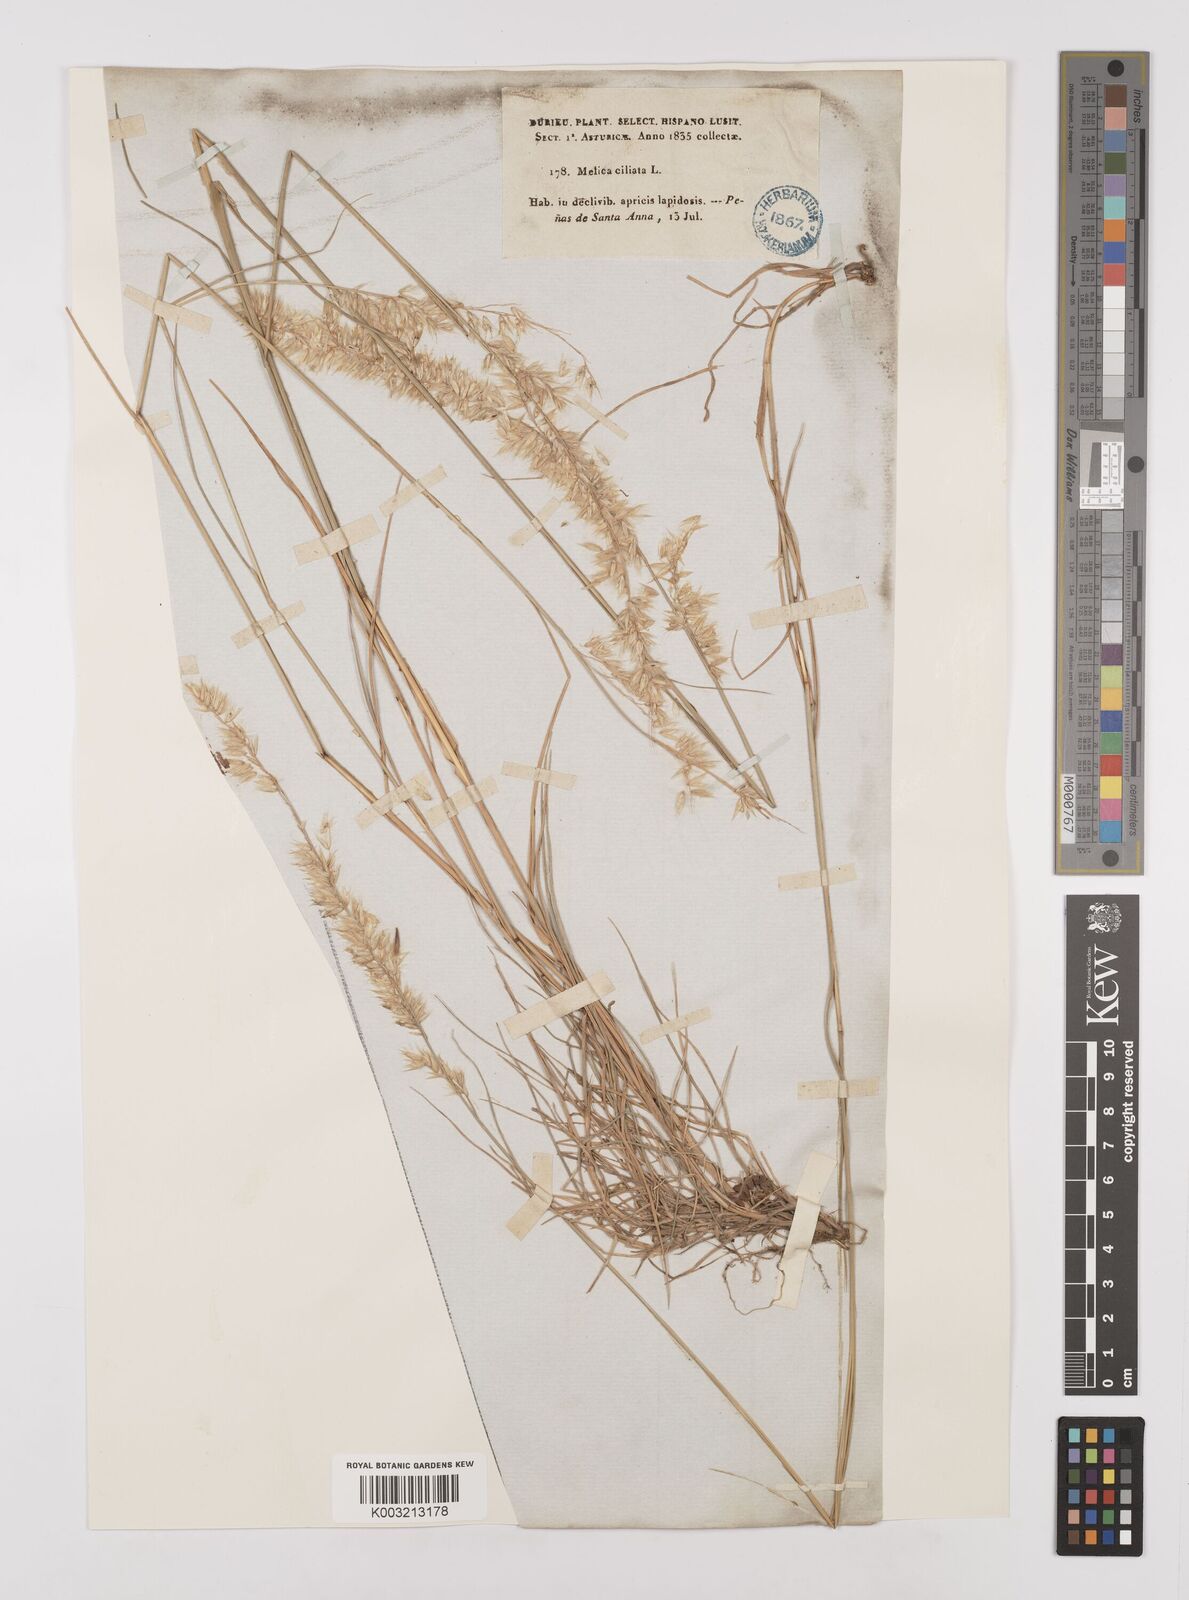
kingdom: Plantae
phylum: Tracheophyta
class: Liliopsida
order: Poales
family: Poaceae
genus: Melica
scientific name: Melica ciliata
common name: Hairy melicgrass
